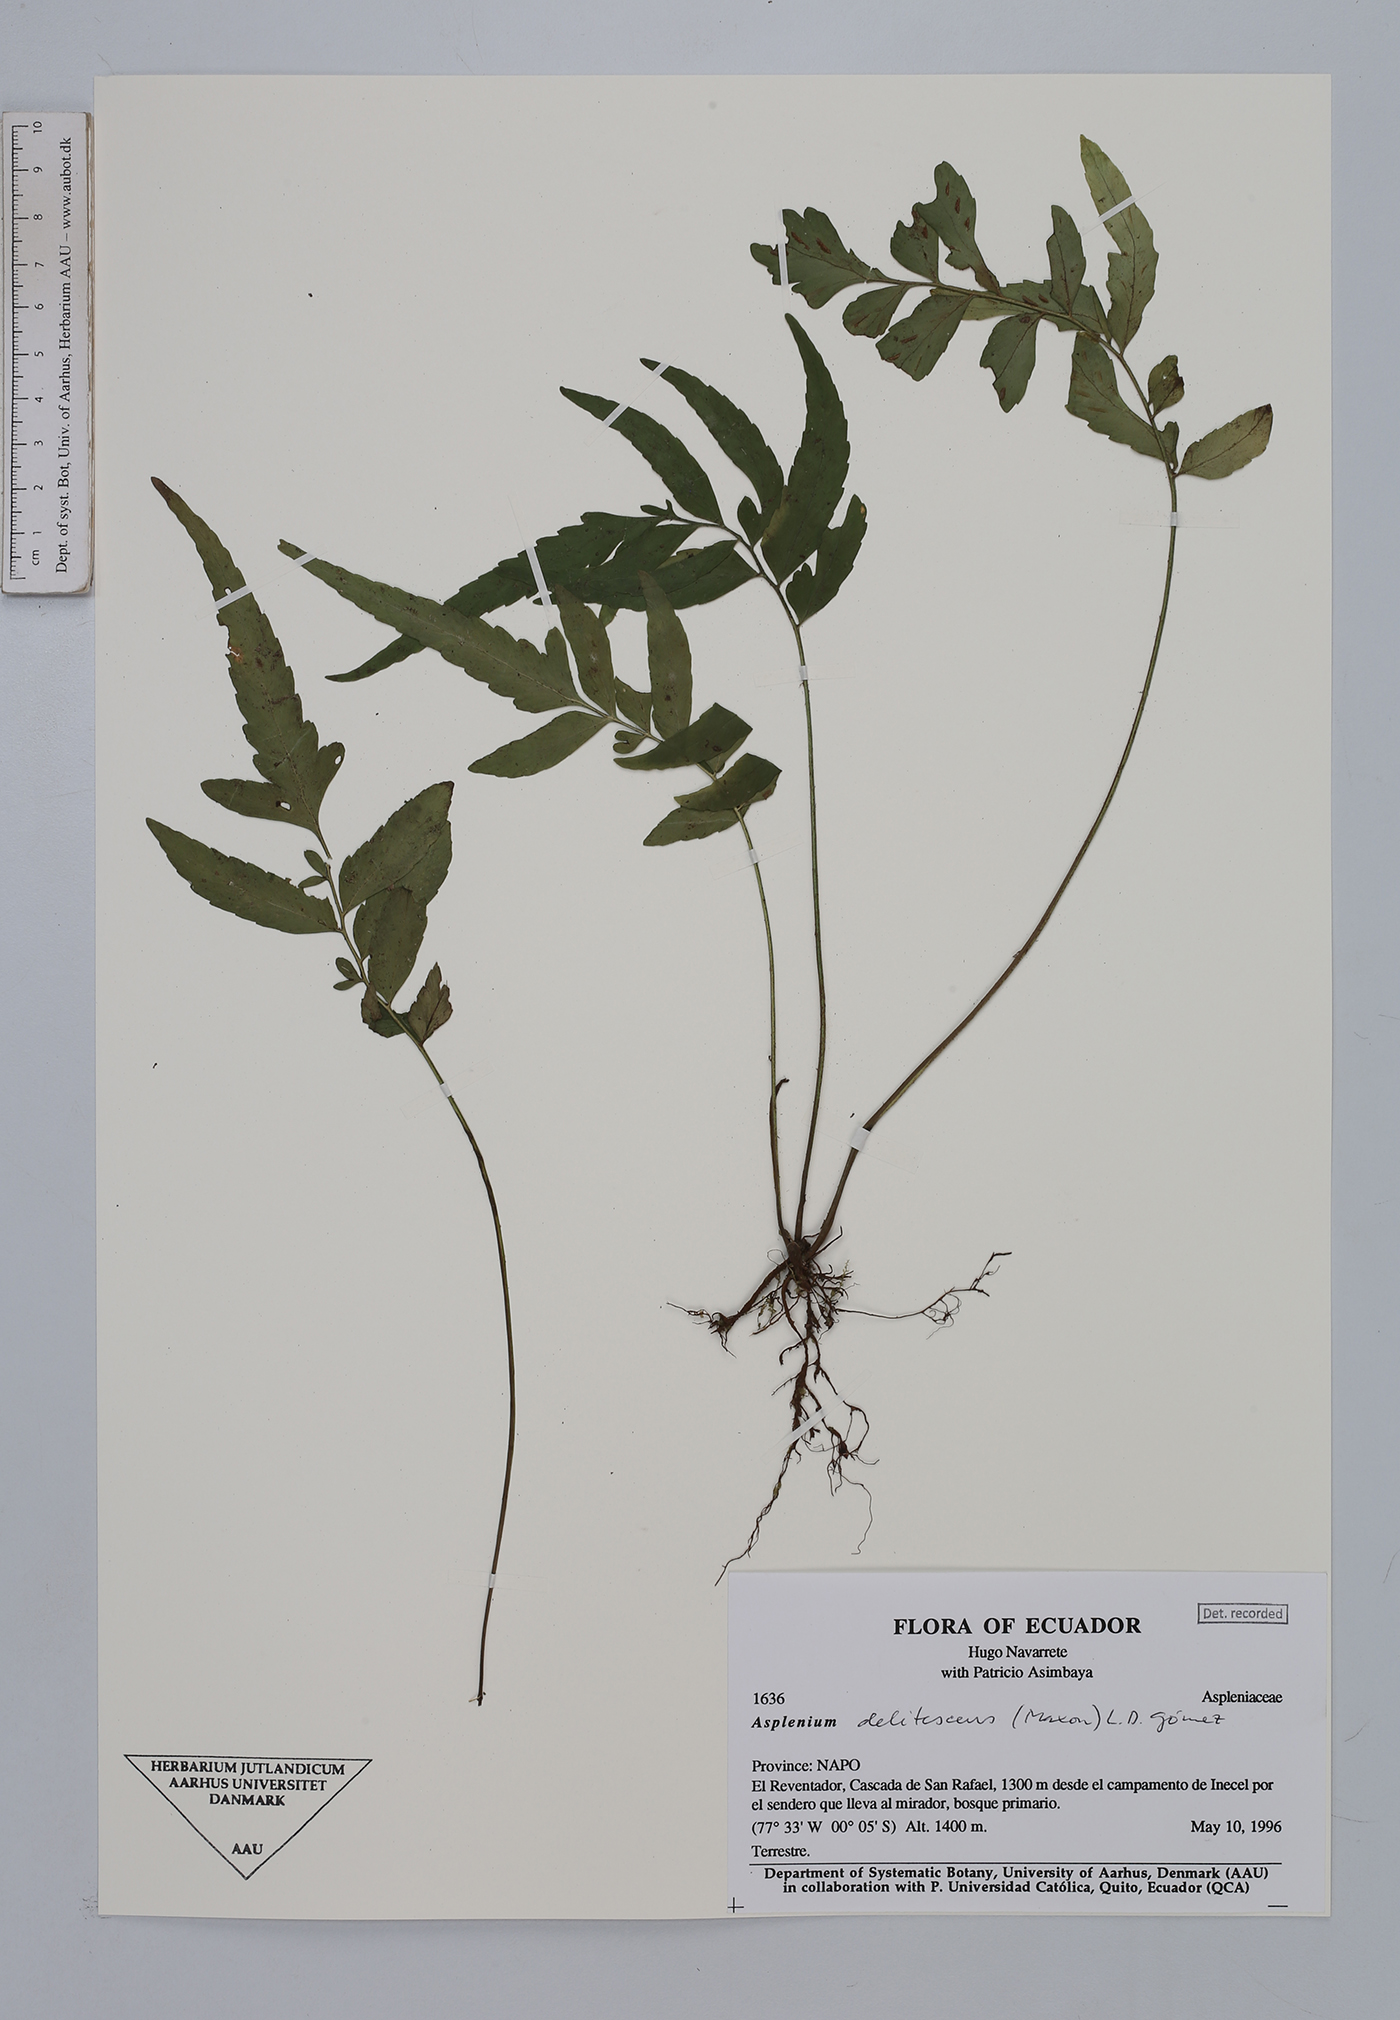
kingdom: Plantae
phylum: Tracheophyta
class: Polypodiopsida
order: Polypodiales
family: Aspleniaceae
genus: Hymenasplenium
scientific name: Hymenasplenium delitescens
